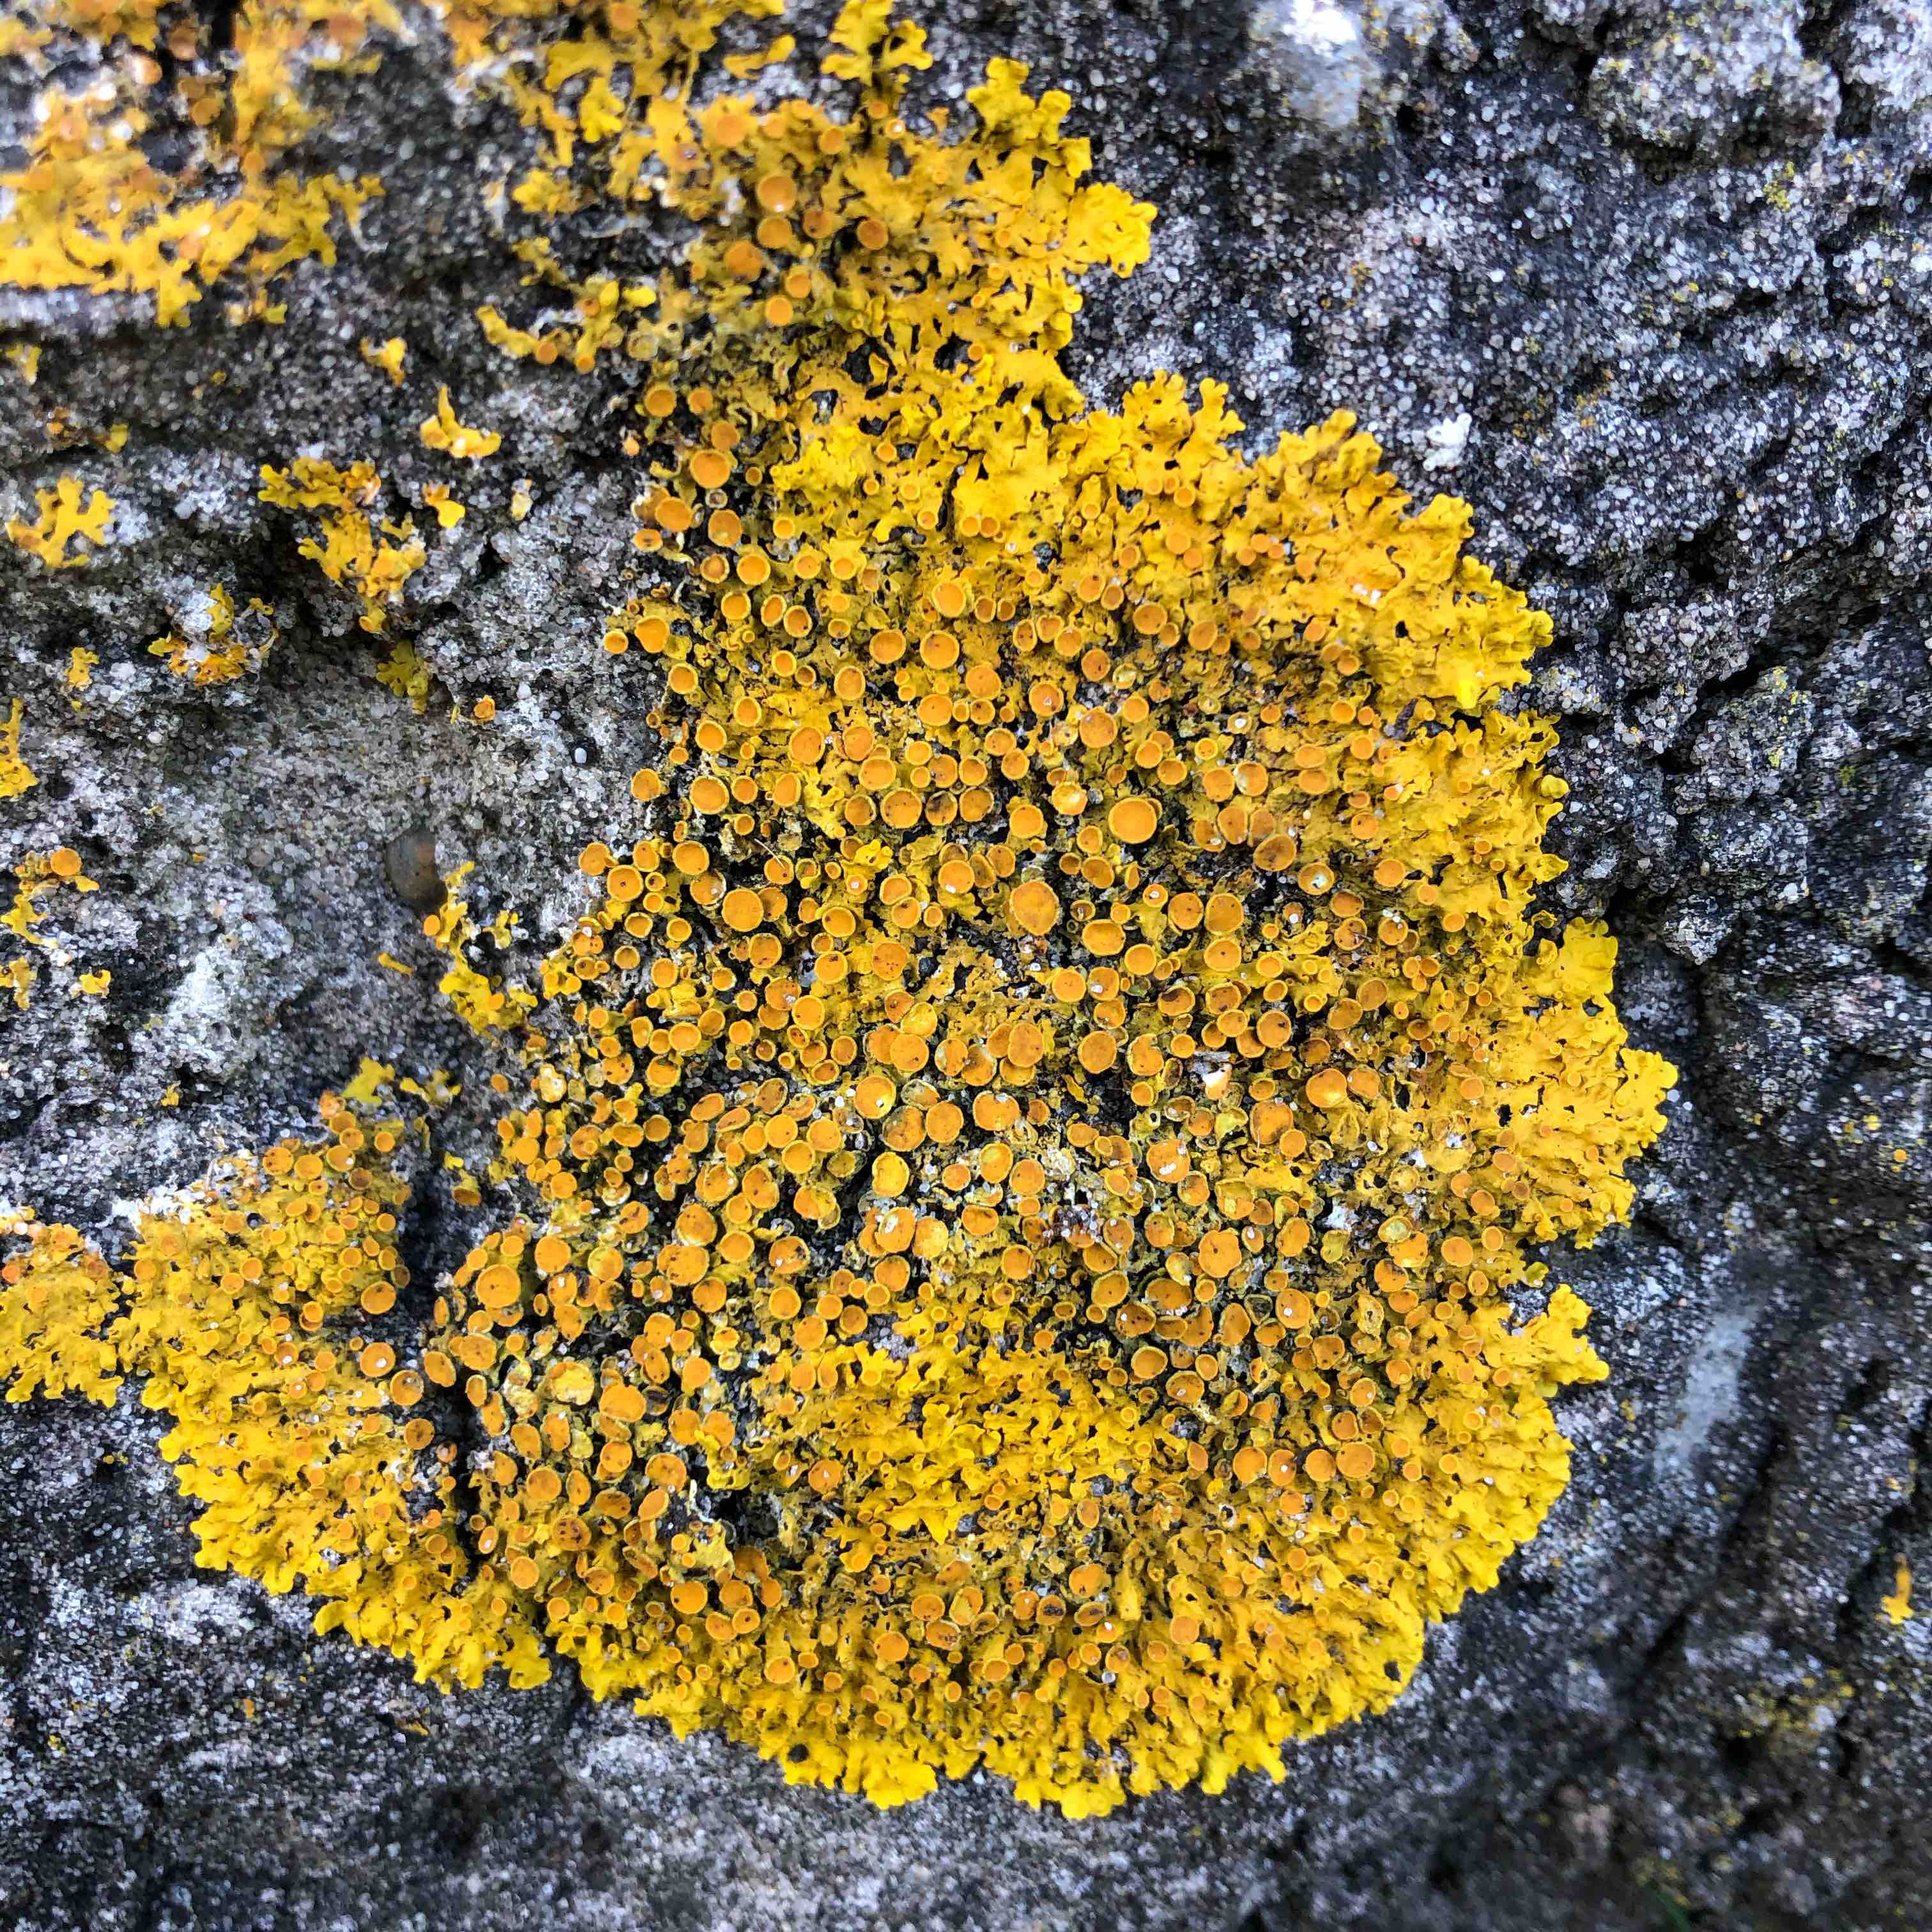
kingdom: Fungi
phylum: Ascomycota
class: Lecanoromycetes
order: Teloschistales
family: Teloschistaceae
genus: Xanthoria
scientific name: Xanthoria parietina
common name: almindelig væggelav
